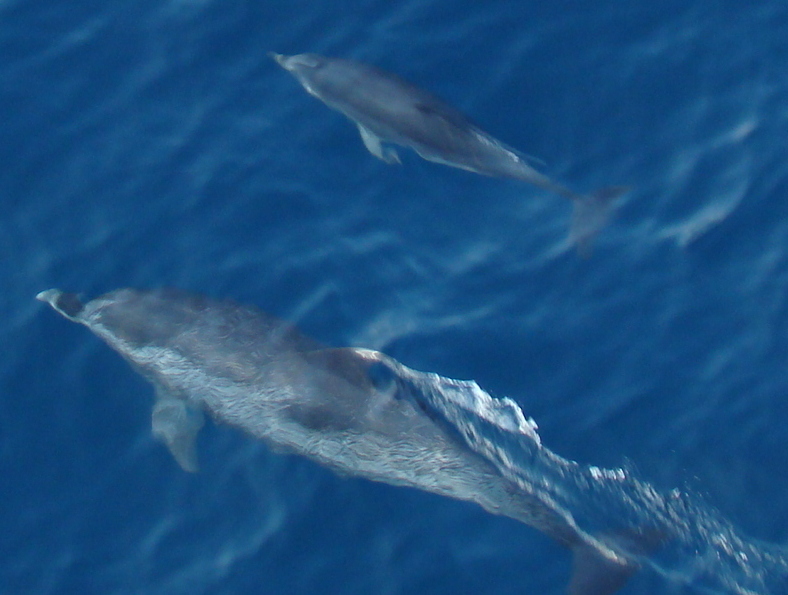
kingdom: Animalia
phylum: Chordata
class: Mammalia
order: Cetacea
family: Delphinidae
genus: Stenella
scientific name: Stenella frontalis
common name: Atlantic Spotted Dolphin
